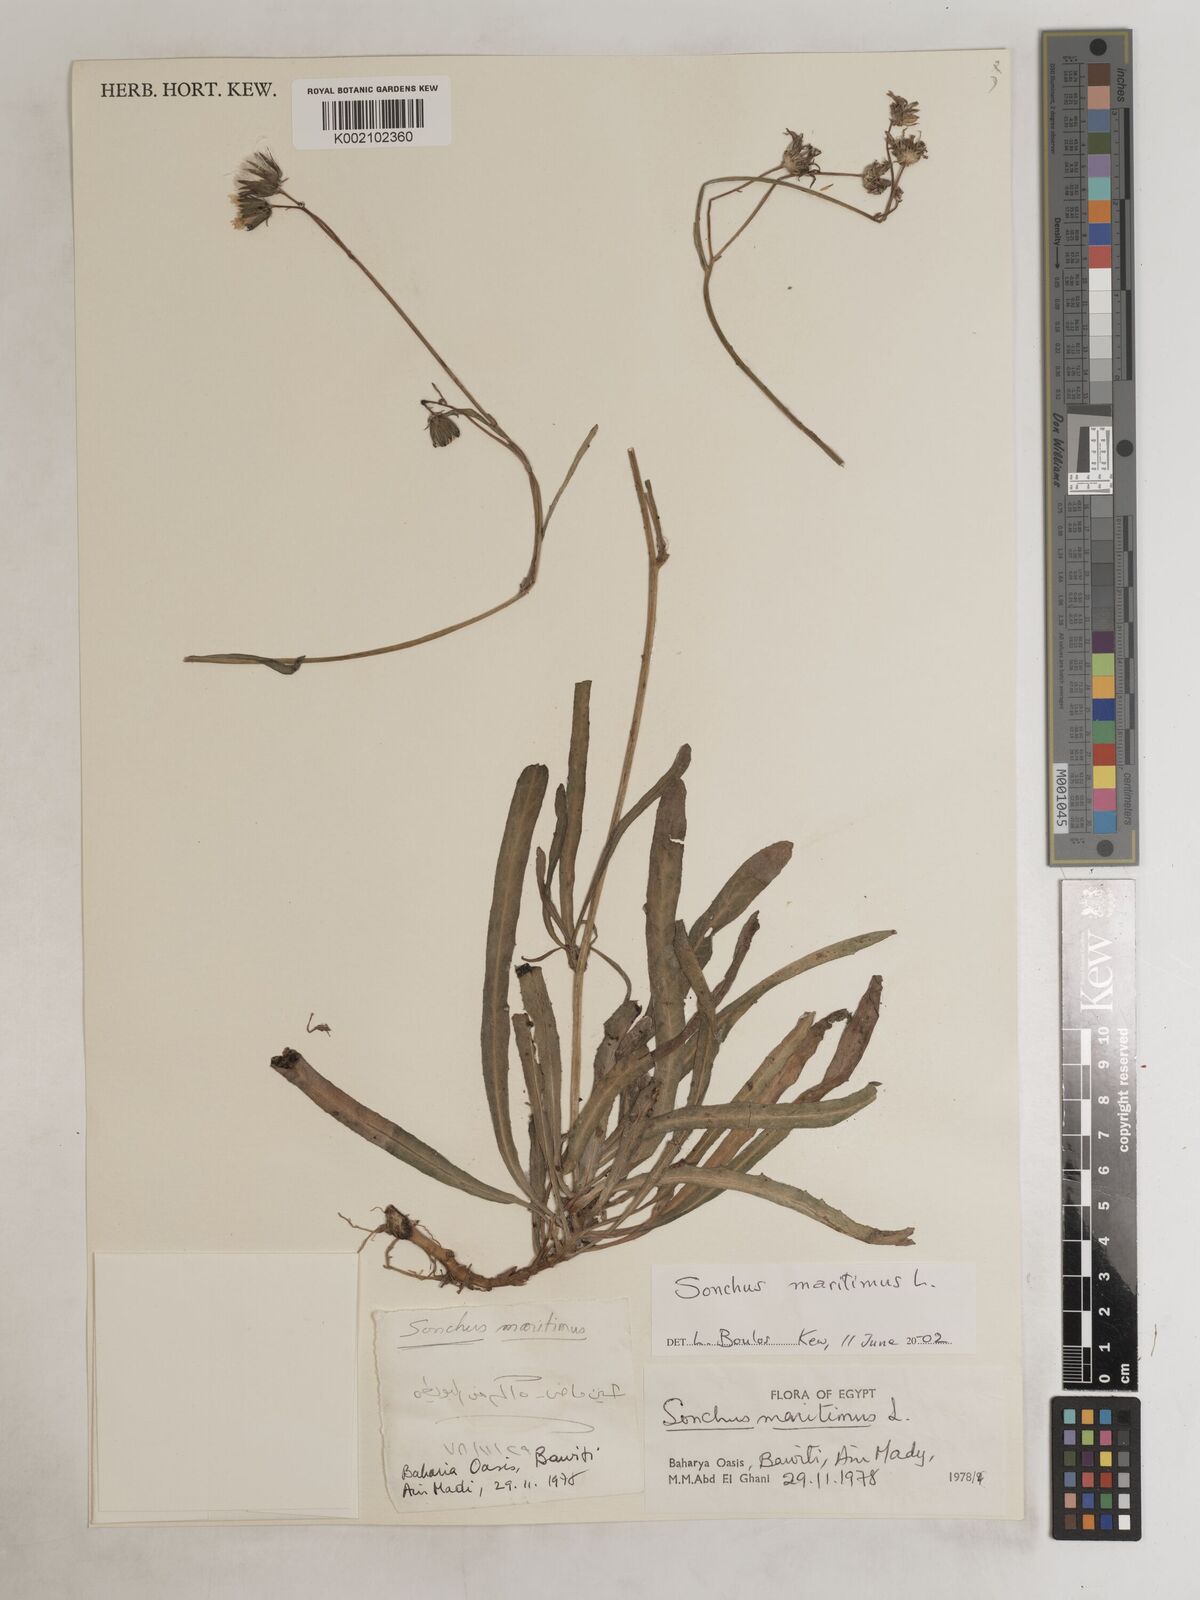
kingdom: Plantae
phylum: Tracheophyta
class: Magnoliopsida
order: Asterales
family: Asteraceae
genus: Sonchus
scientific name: Sonchus maritimus
